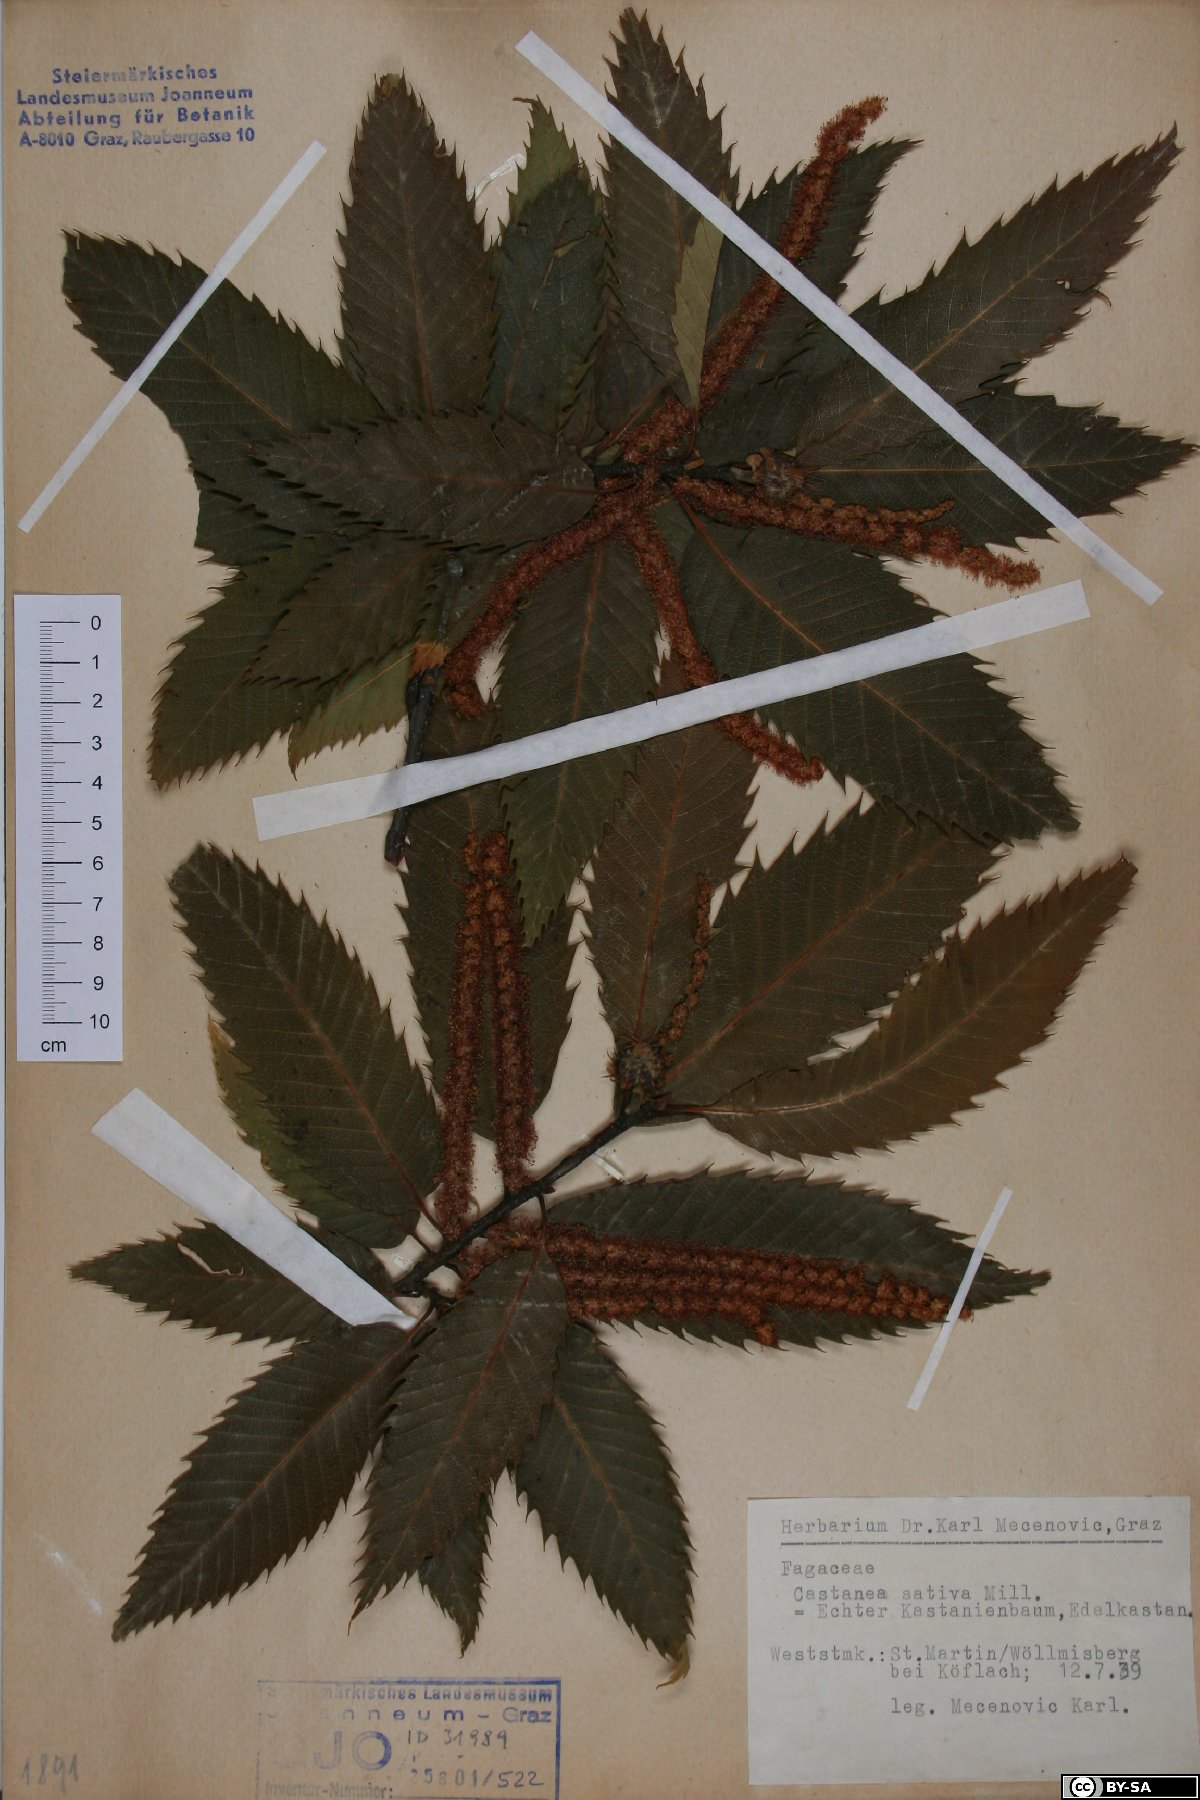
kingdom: Plantae
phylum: Tracheophyta
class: Magnoliopsida
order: Fagales
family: Fagaceae
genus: Castanea
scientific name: Castanea sativa
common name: Sweet chestnut
